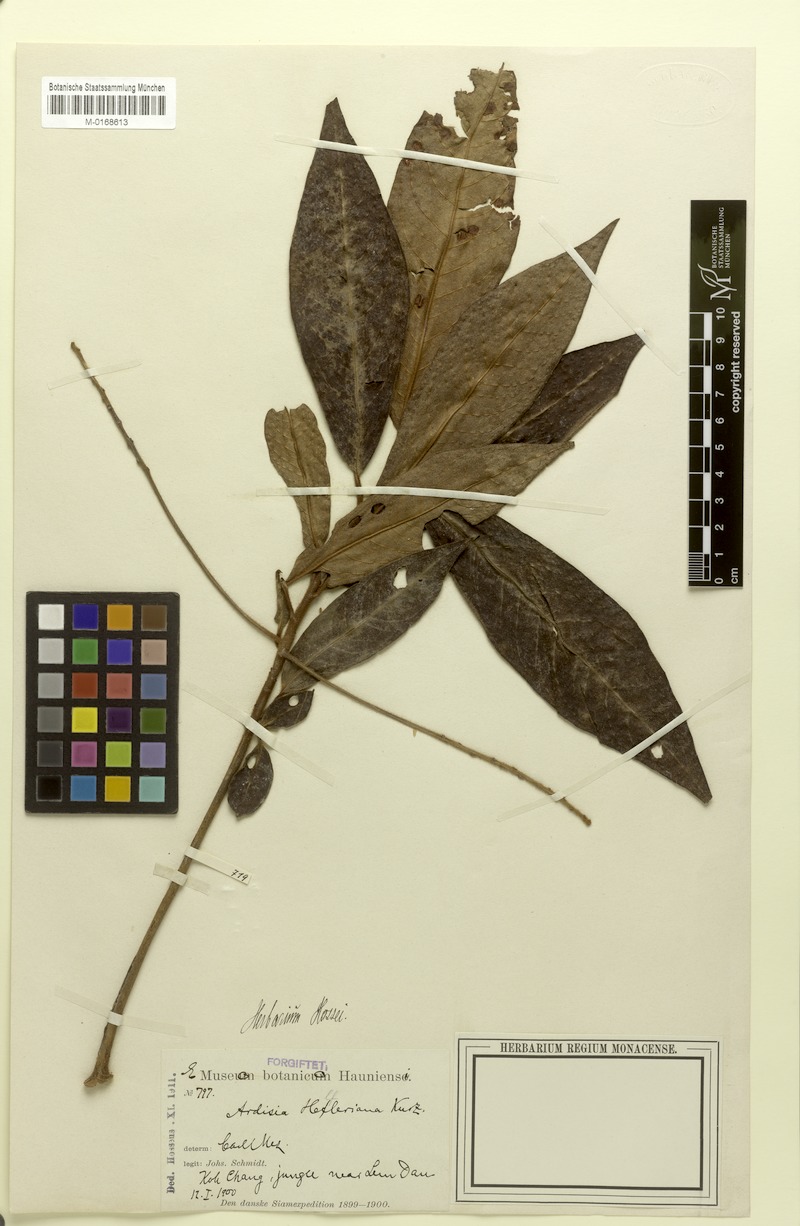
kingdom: Plantae
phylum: Tracheophyta
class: Magnoliopsida
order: Ericales
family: Primulaceae
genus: Ardisia
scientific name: Ardisia helferiana
